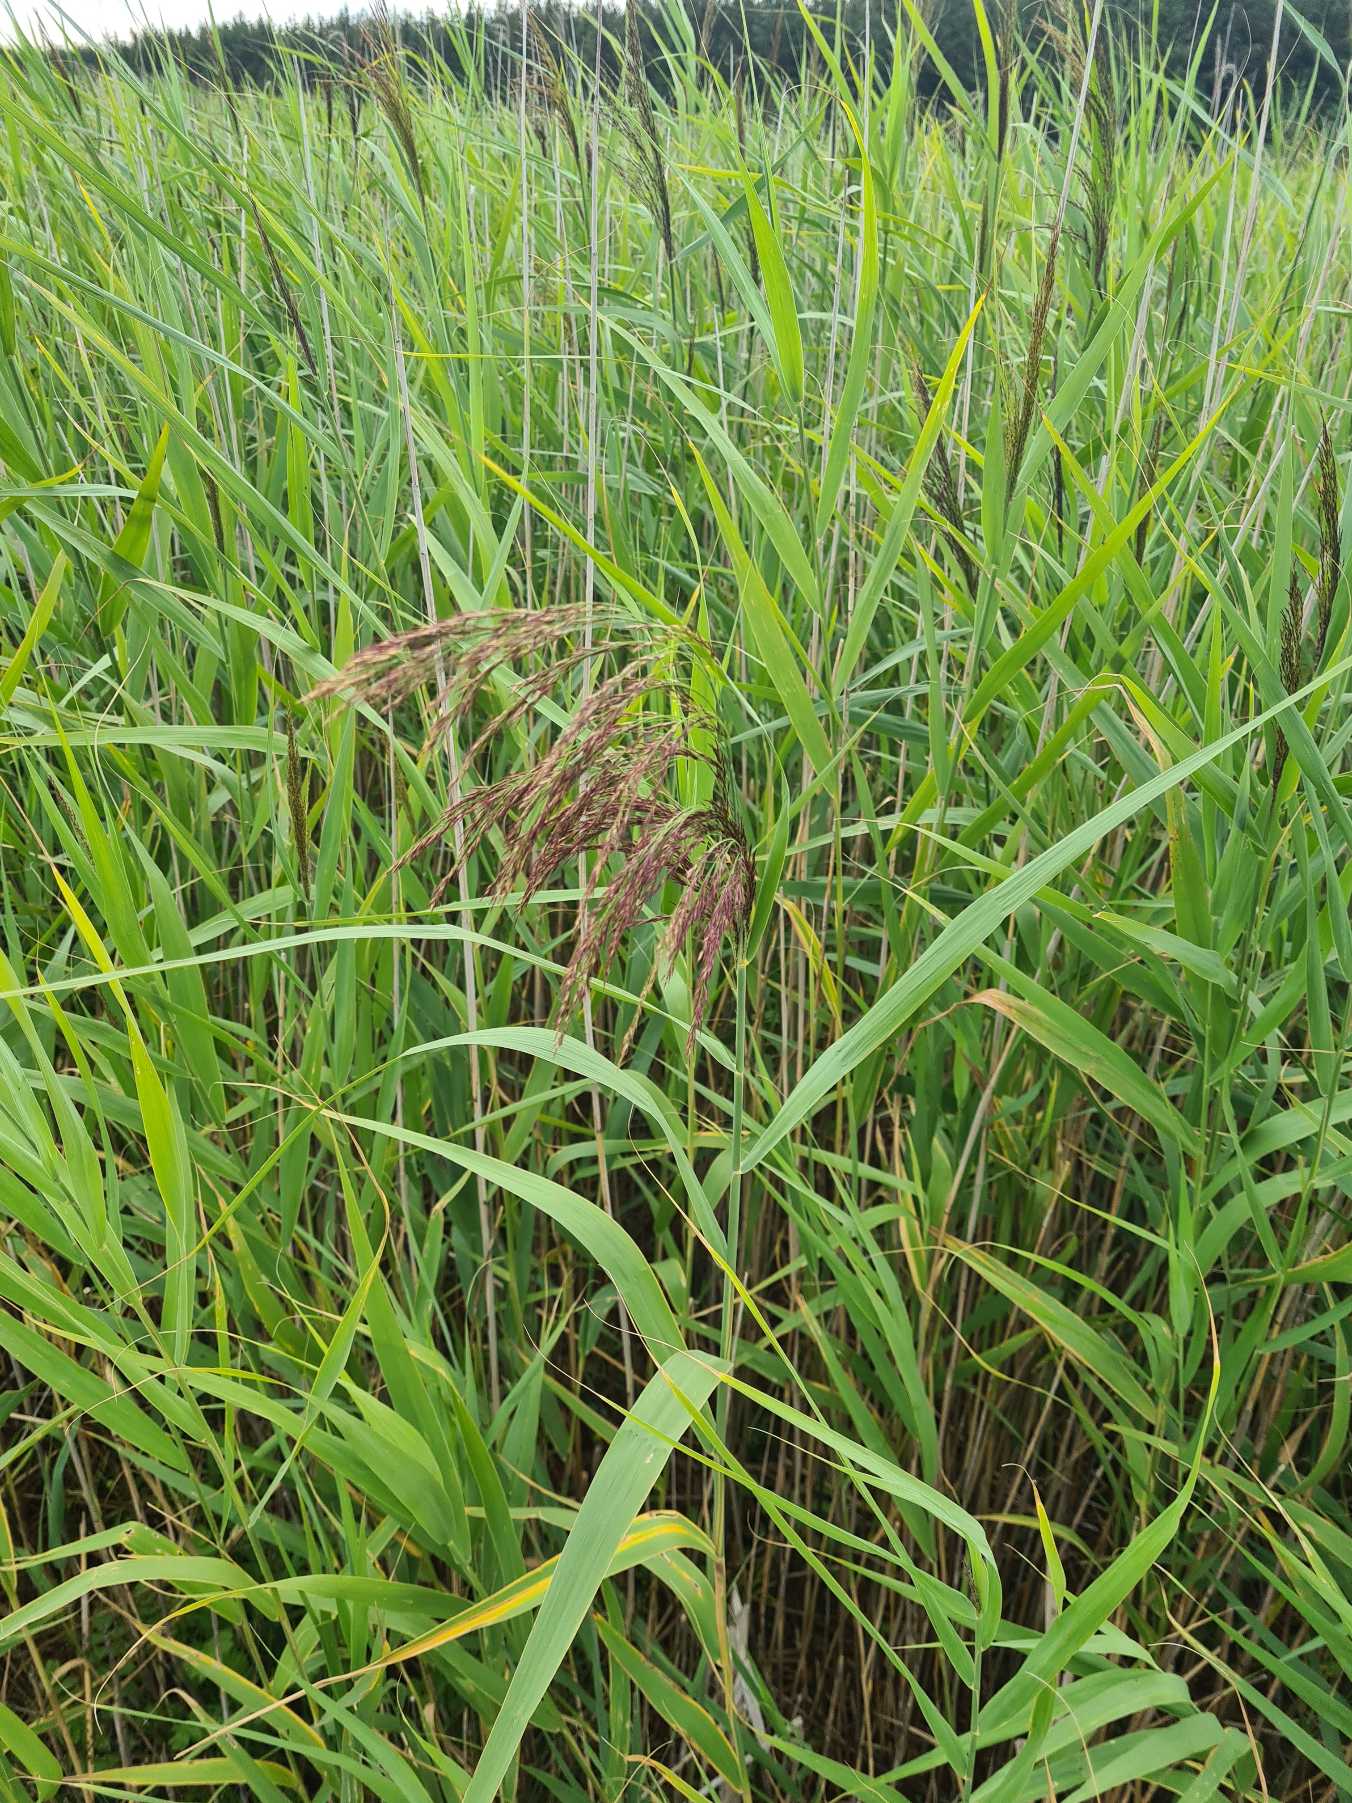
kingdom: Plantae
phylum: Tracheophyta
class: Liliopsida
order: Poales
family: Poaceae
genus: Phragmites
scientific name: Phragmites australis
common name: Tagrør
